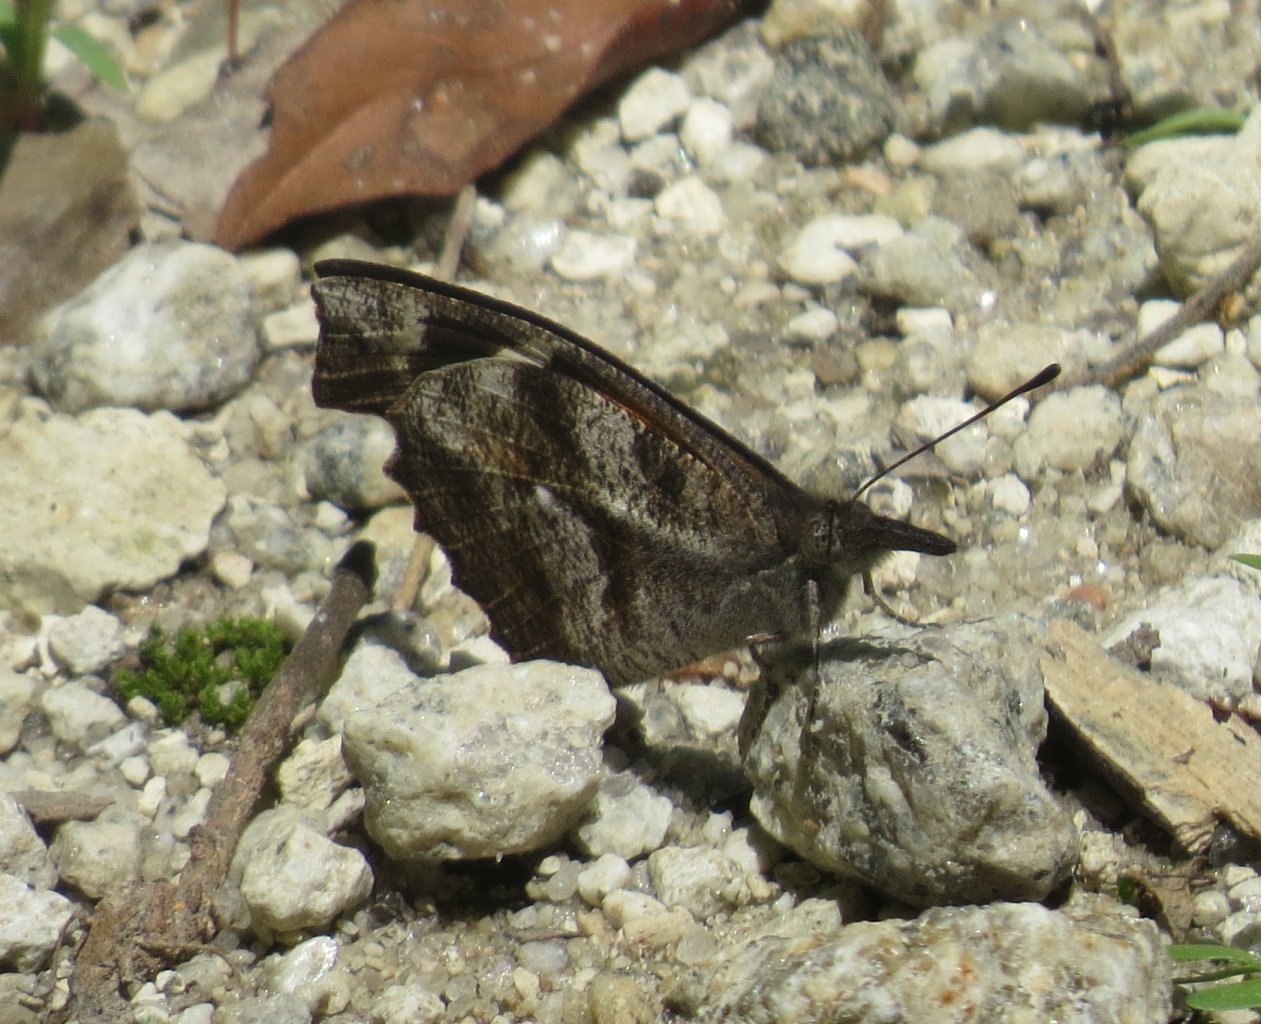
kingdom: Animalia
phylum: Arthropoda
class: Insecta
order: Lepidoptera
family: Nymphalidae
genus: Libytheana
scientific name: Libytheana carinenta
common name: American Snout
